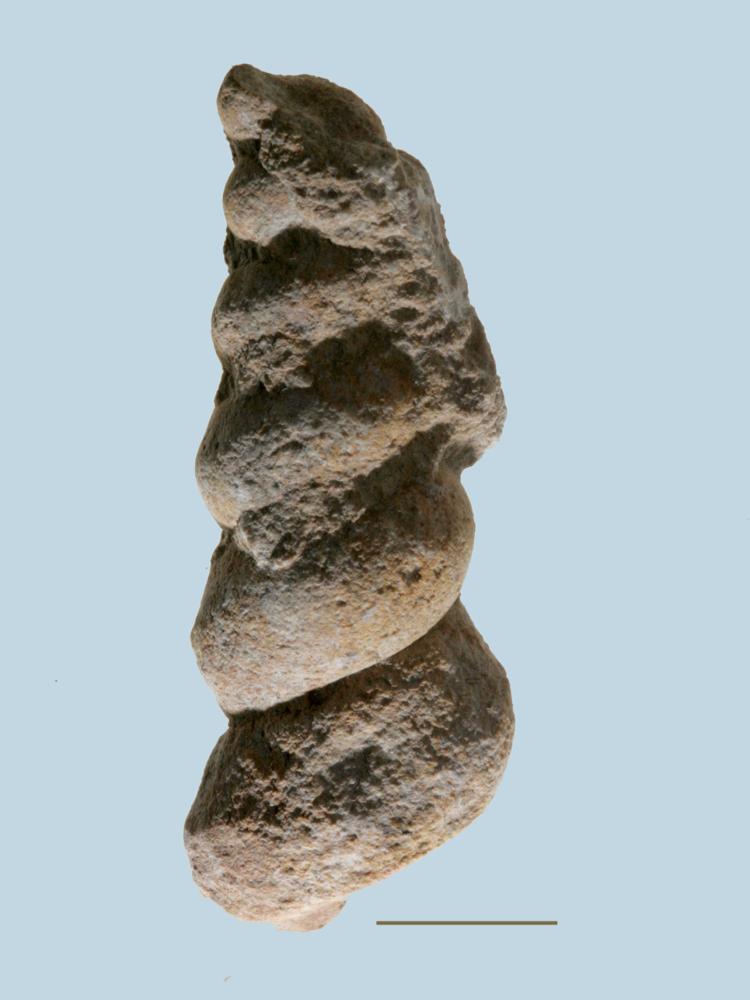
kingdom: Animalia
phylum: Mollusca
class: Gastropoda
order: Pleurotomariida
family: Murchisoniidae
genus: Murchisonia
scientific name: Murchisonia
